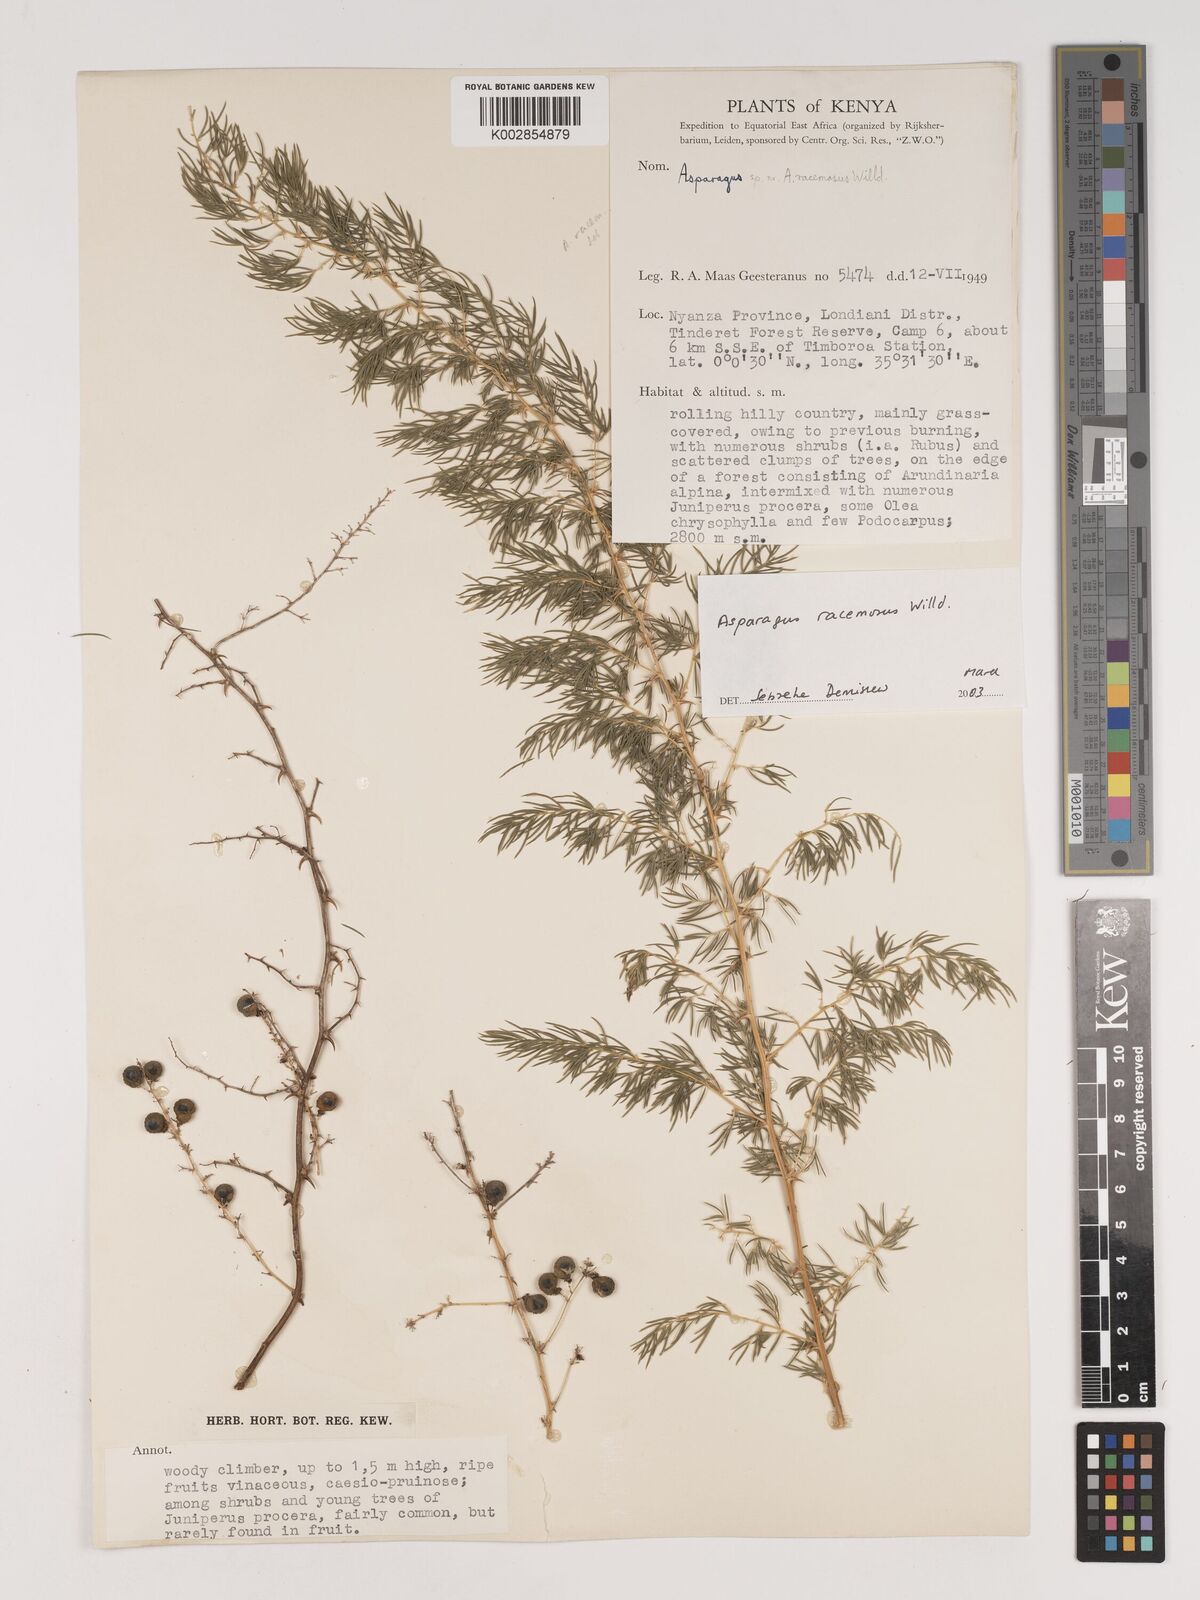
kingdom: Plantae
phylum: Tracheophyta
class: Liliopsida
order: Asparagales
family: Asparagaceae
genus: Asparagus
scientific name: Asparagus racemosus
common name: Asparagus-fern
